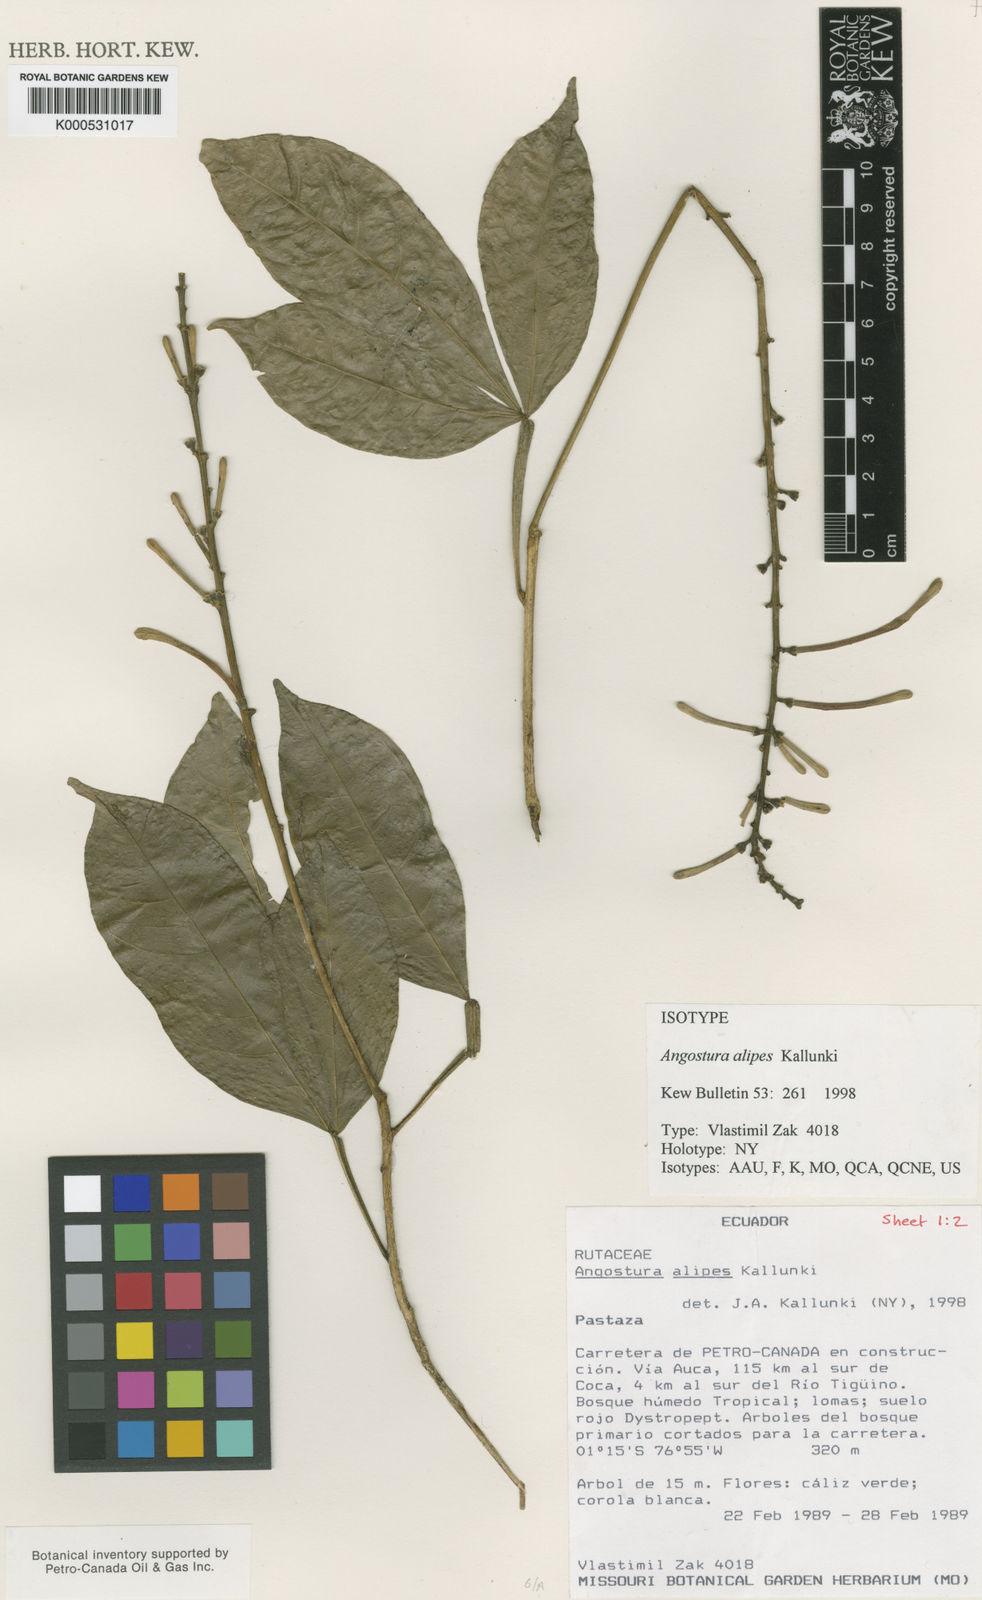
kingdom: Plantae
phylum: Tracheophyta
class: Magnoliopsida
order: Sapindales
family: Rutaceae
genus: Angostura
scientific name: Angostura alipes
